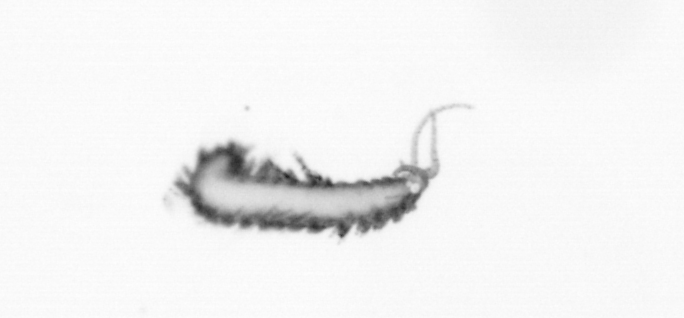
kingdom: Animalia
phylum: Annelida
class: Polychaeta
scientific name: Polychaeta
